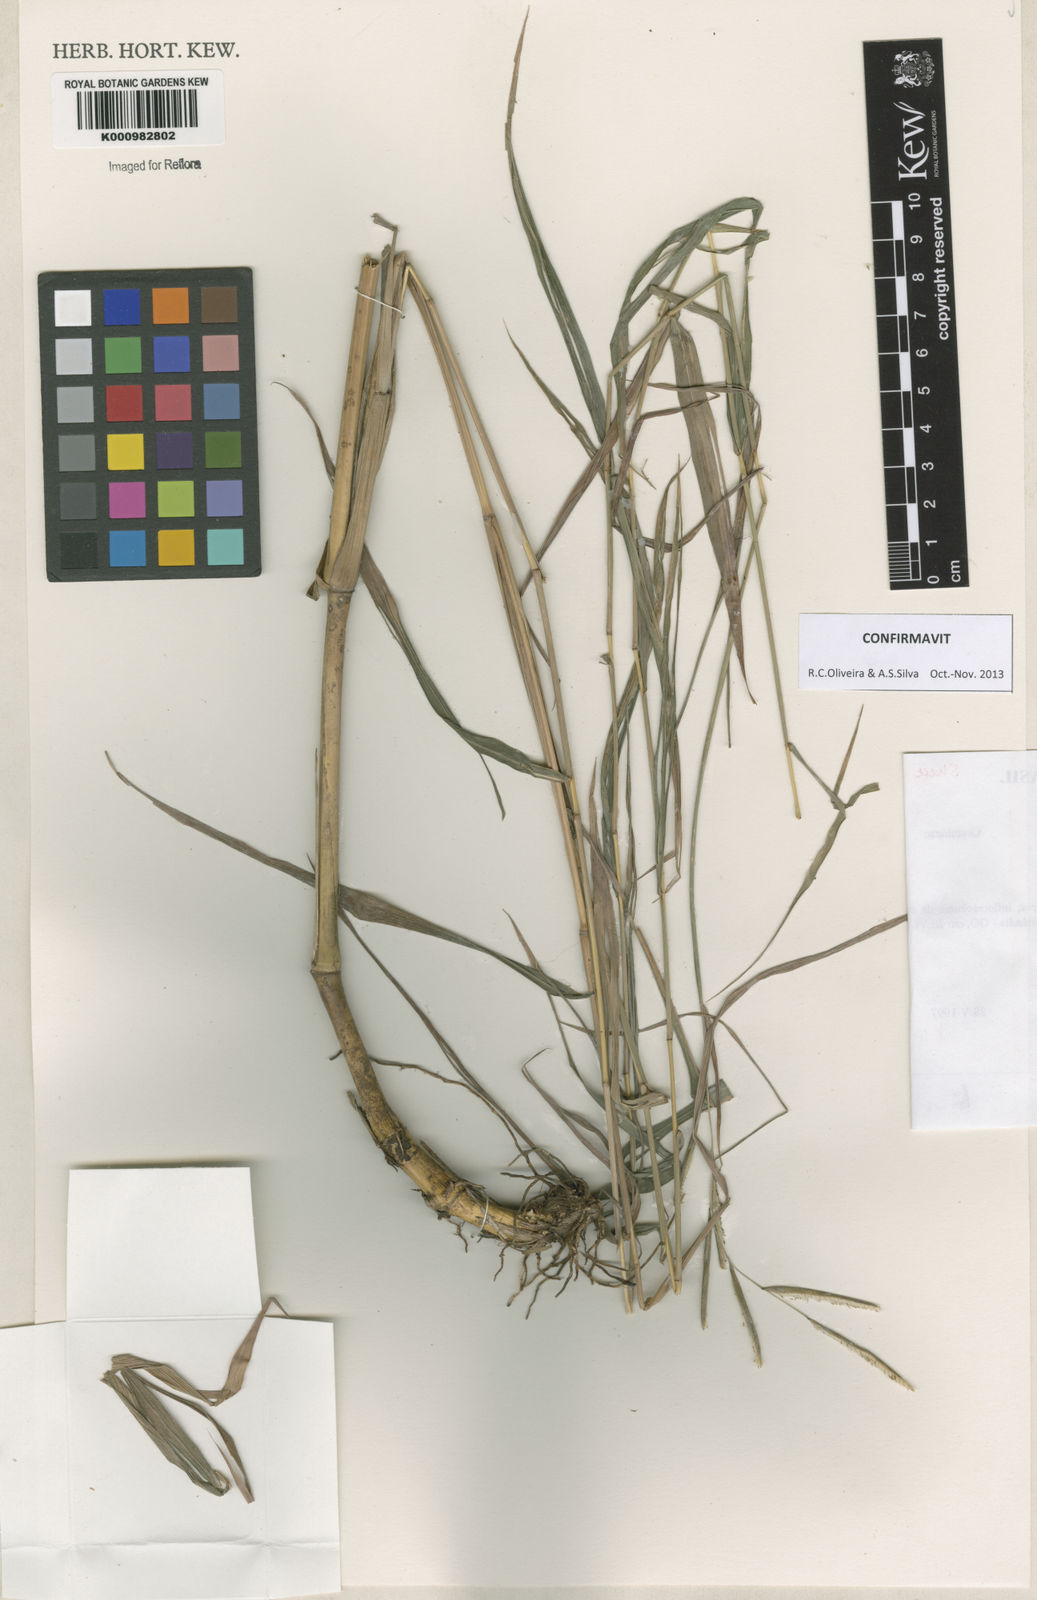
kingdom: Plantae
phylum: Tracheophyta
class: Liliopsida
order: Poales
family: Poaceae
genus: Paspalum
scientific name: Paspalum petrense
